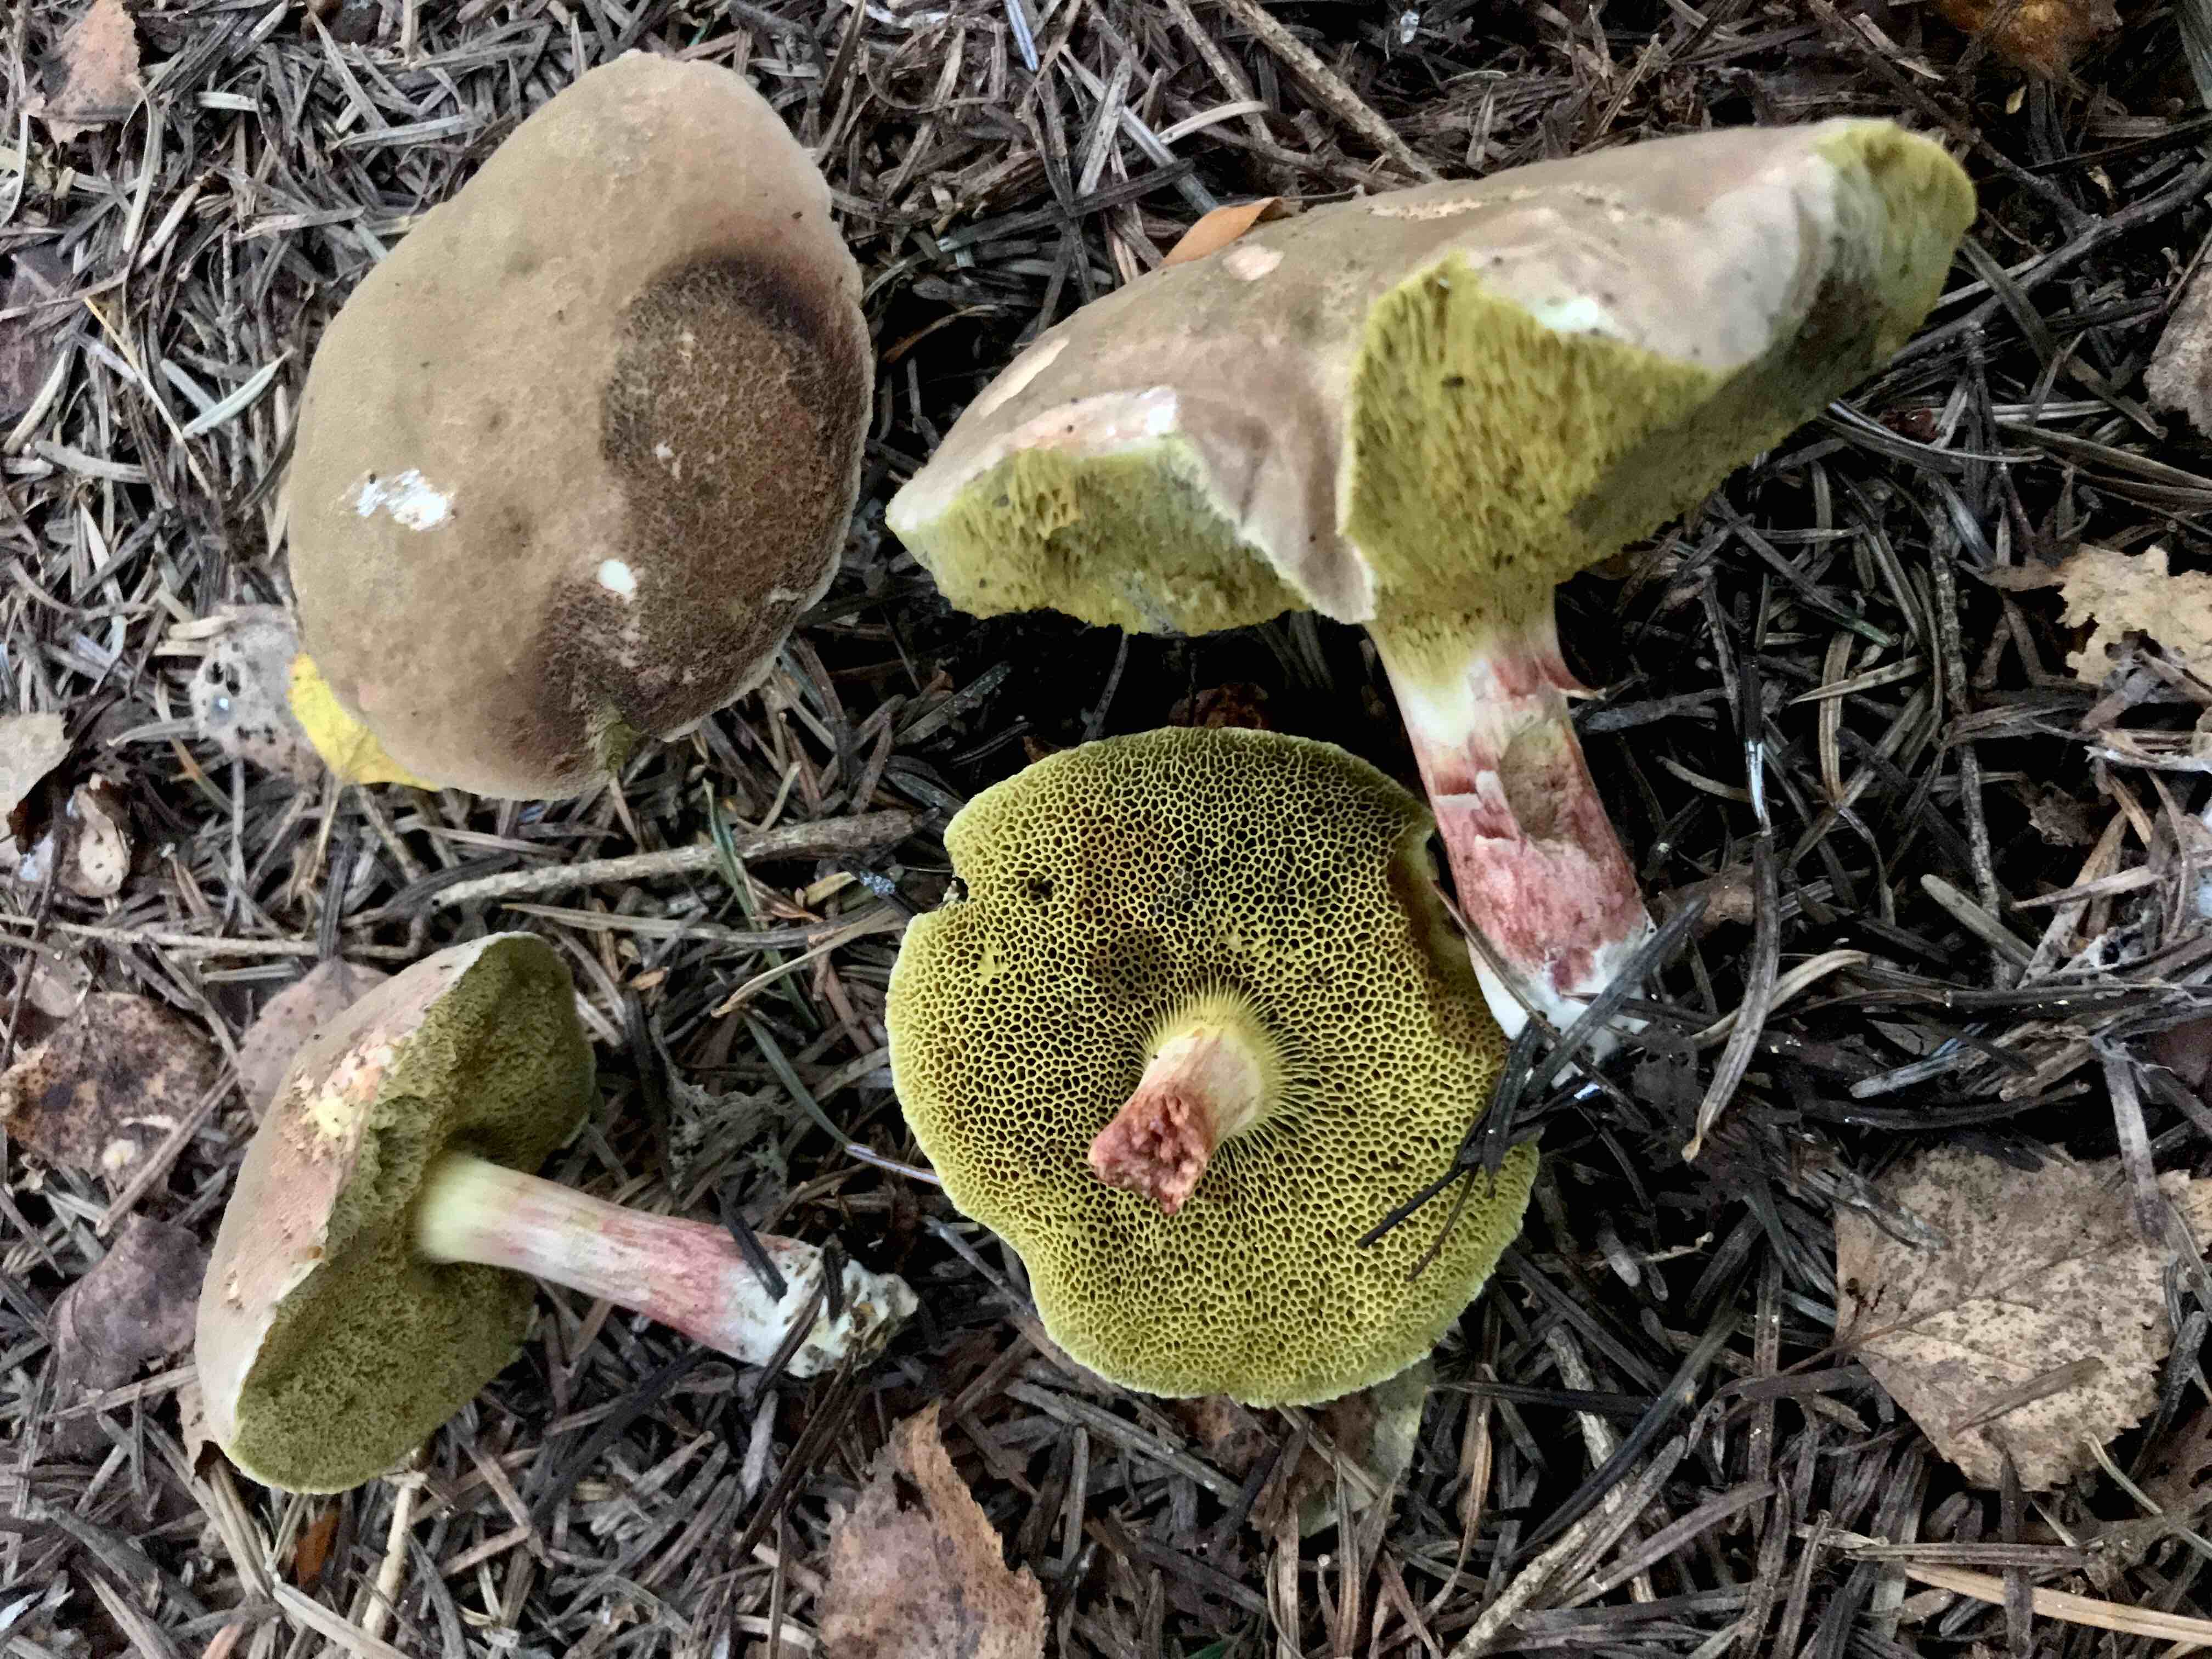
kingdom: Fungi
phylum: Basidiomycota
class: Agaricomycetes
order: Boletales
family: Boletaceae
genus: Xerocomellus
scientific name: Xerocomellus chrysenteron
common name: rødsprukken rørhat
